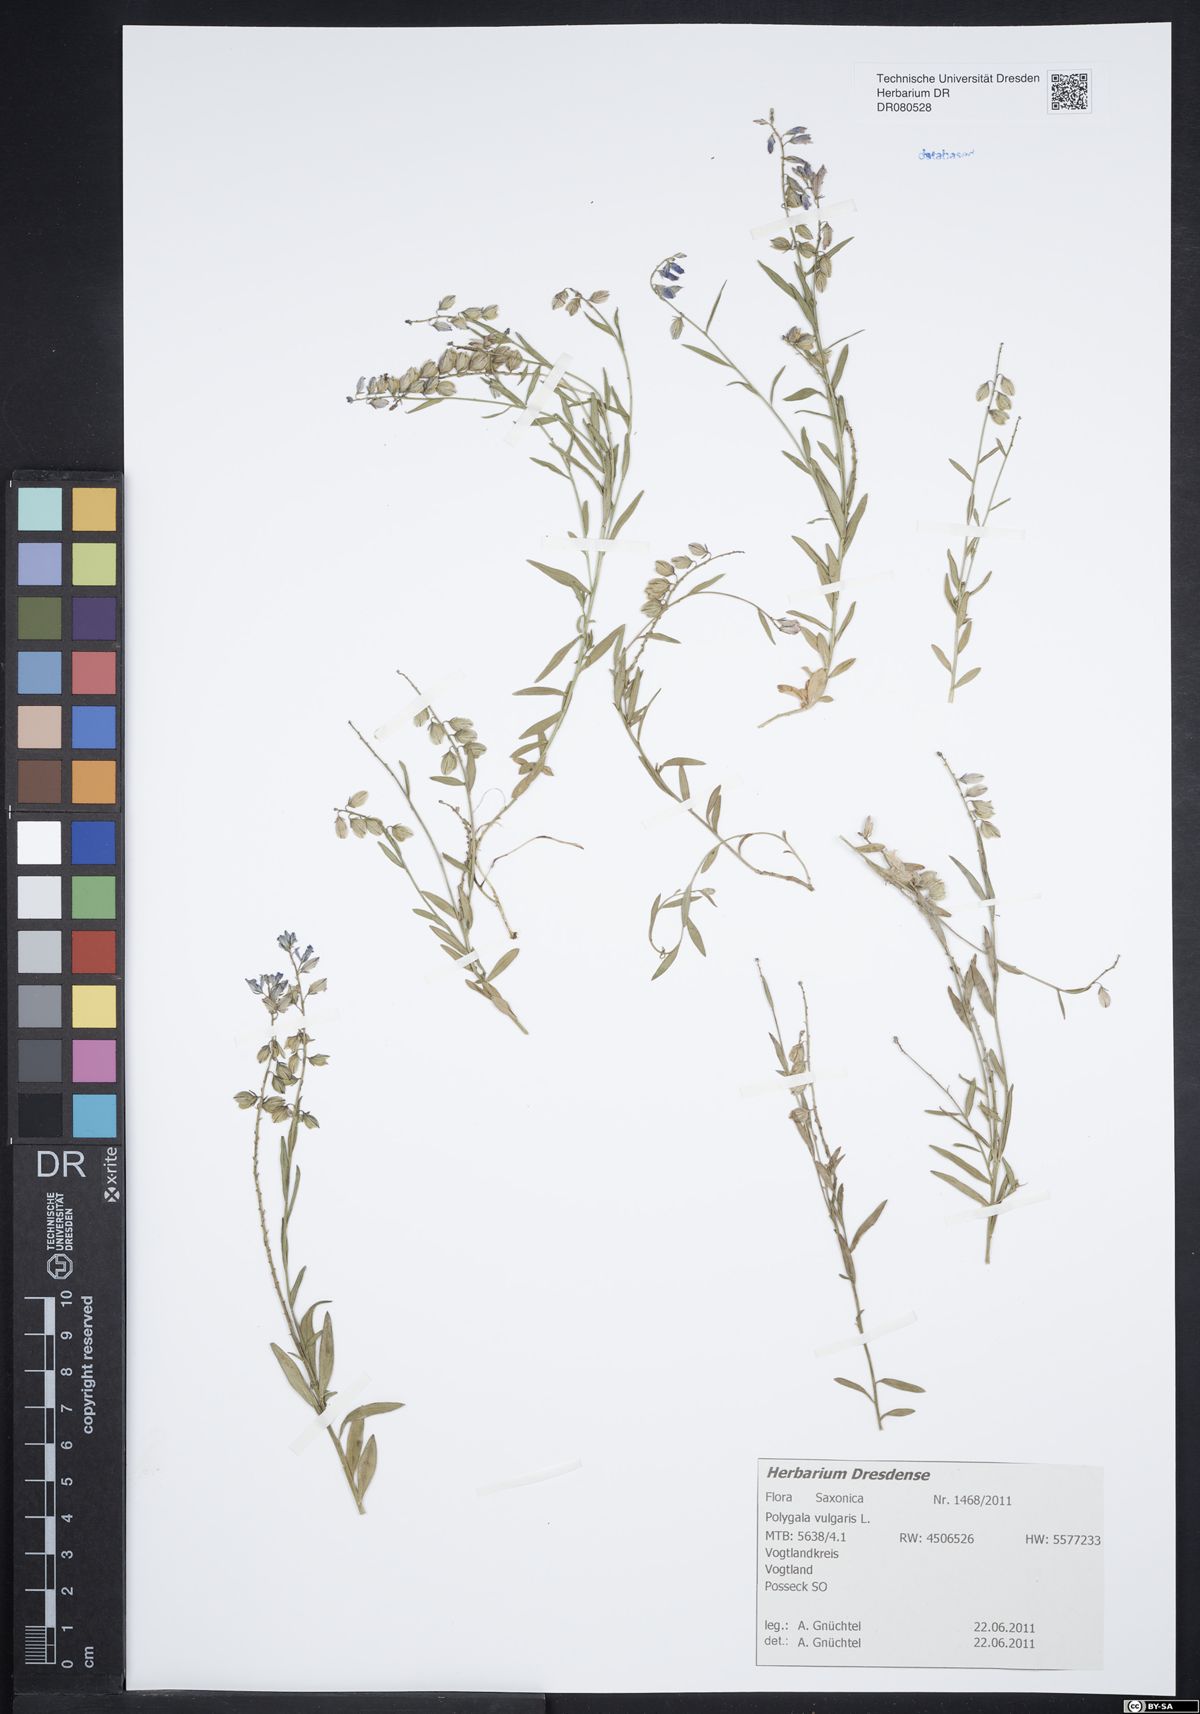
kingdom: Plantae
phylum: Tracheophyta
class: Magnoliopsida
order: Fabales
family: Polygalaceae
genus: Polygala
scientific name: Polygala vulgaris
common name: Common milkwort
